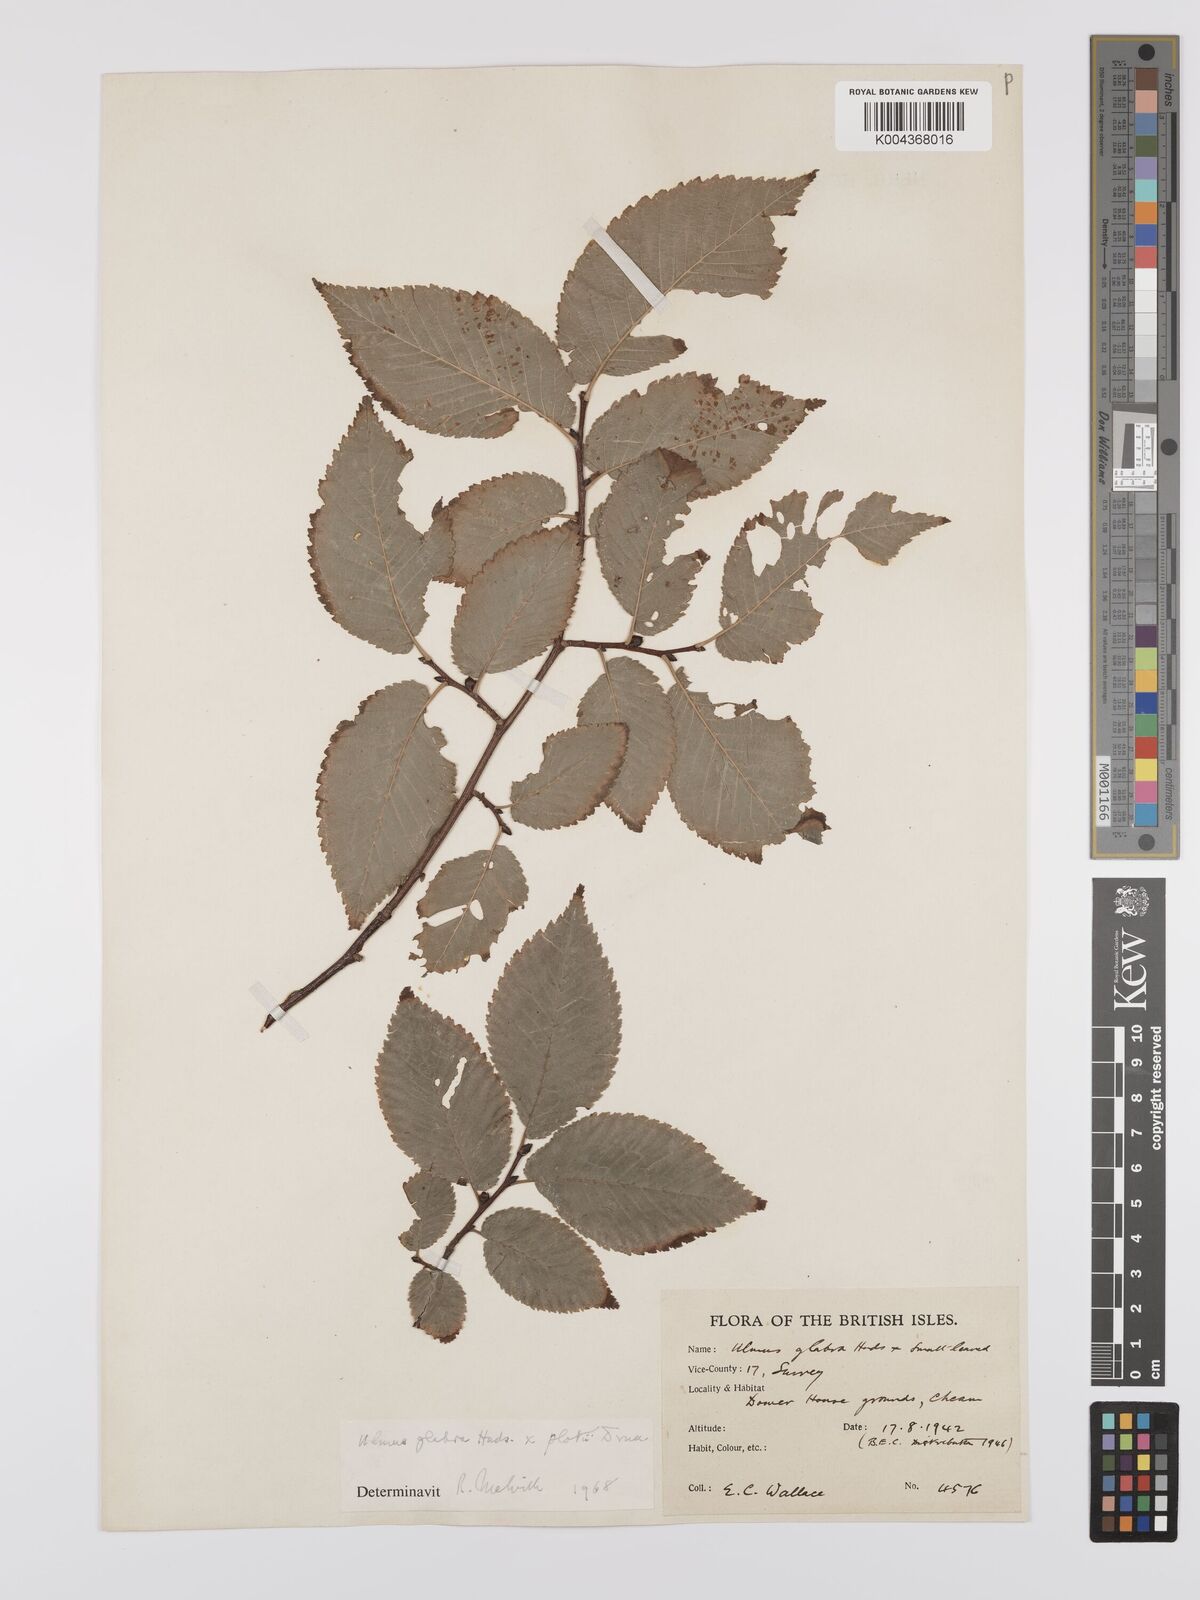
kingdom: Plantae
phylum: Tracheophyta
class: Magnoliopsida
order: Rosales
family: Ulmaceae
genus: Ulmus
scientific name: Ulmus
